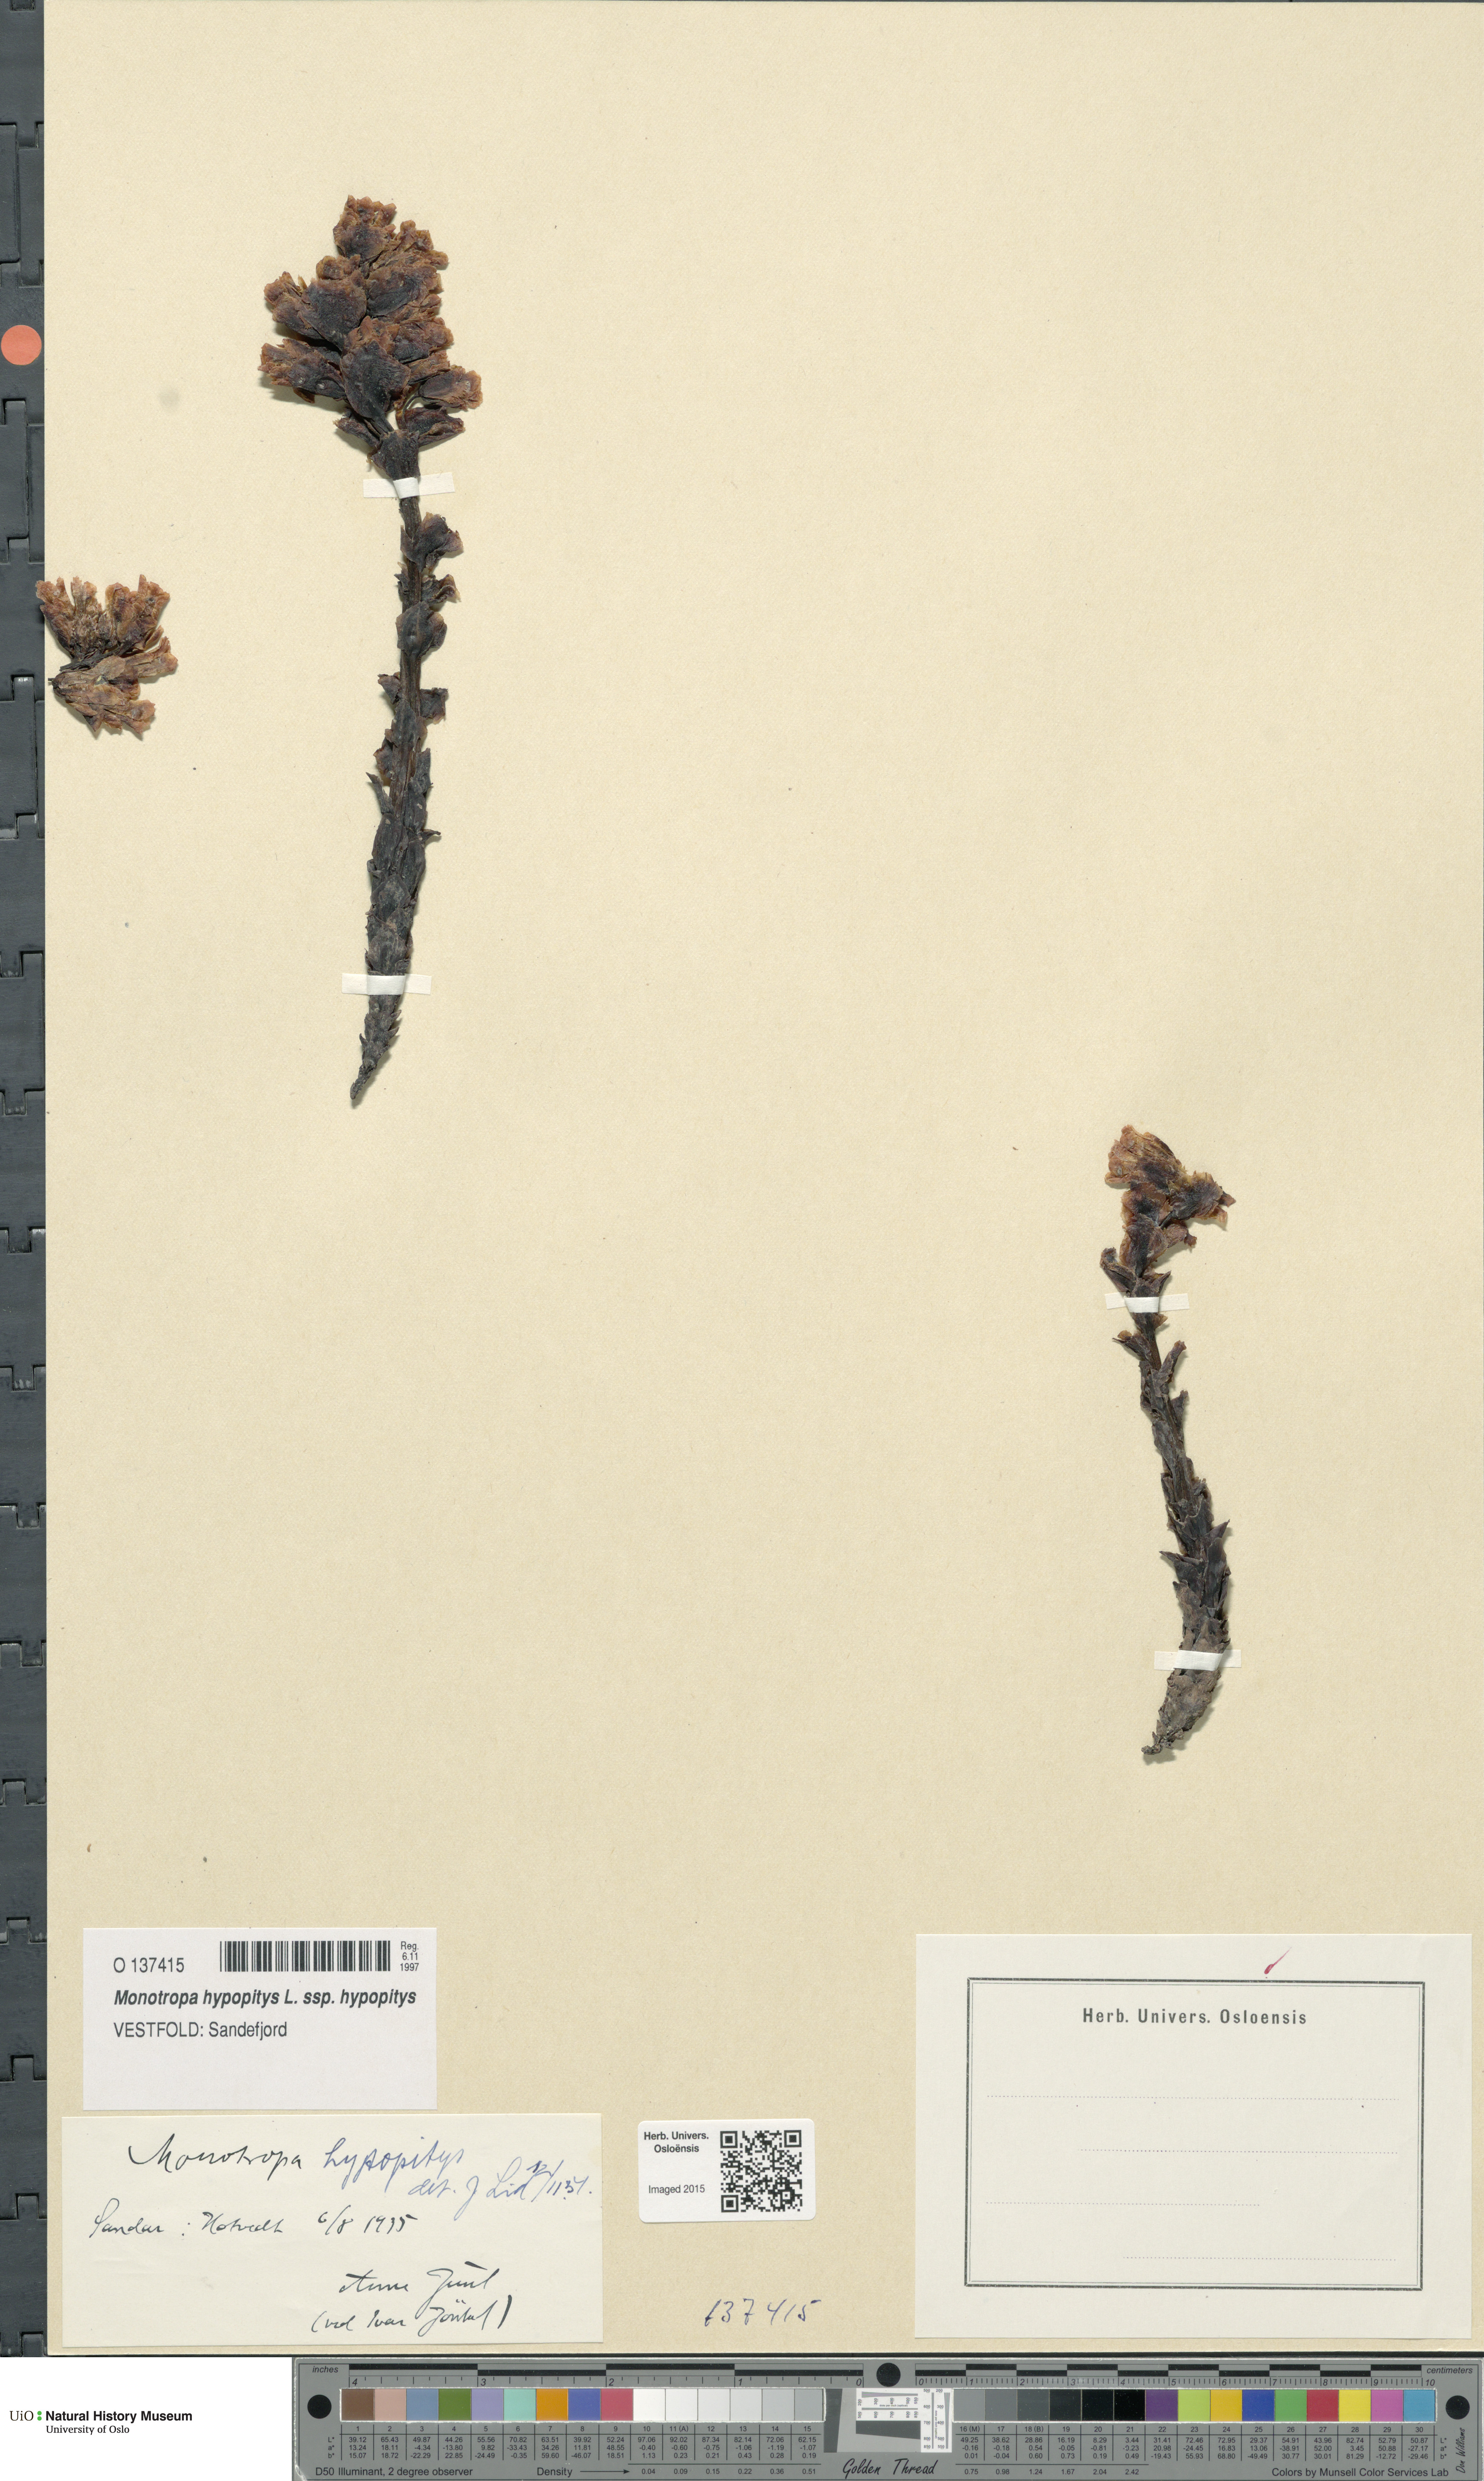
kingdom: Plantae
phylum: Tracheophyta
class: Magnoliopsida
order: Ericales
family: Ericaceae
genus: Hypopitys
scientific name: Hypopitys monotropa
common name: Yellow bird's-nest
